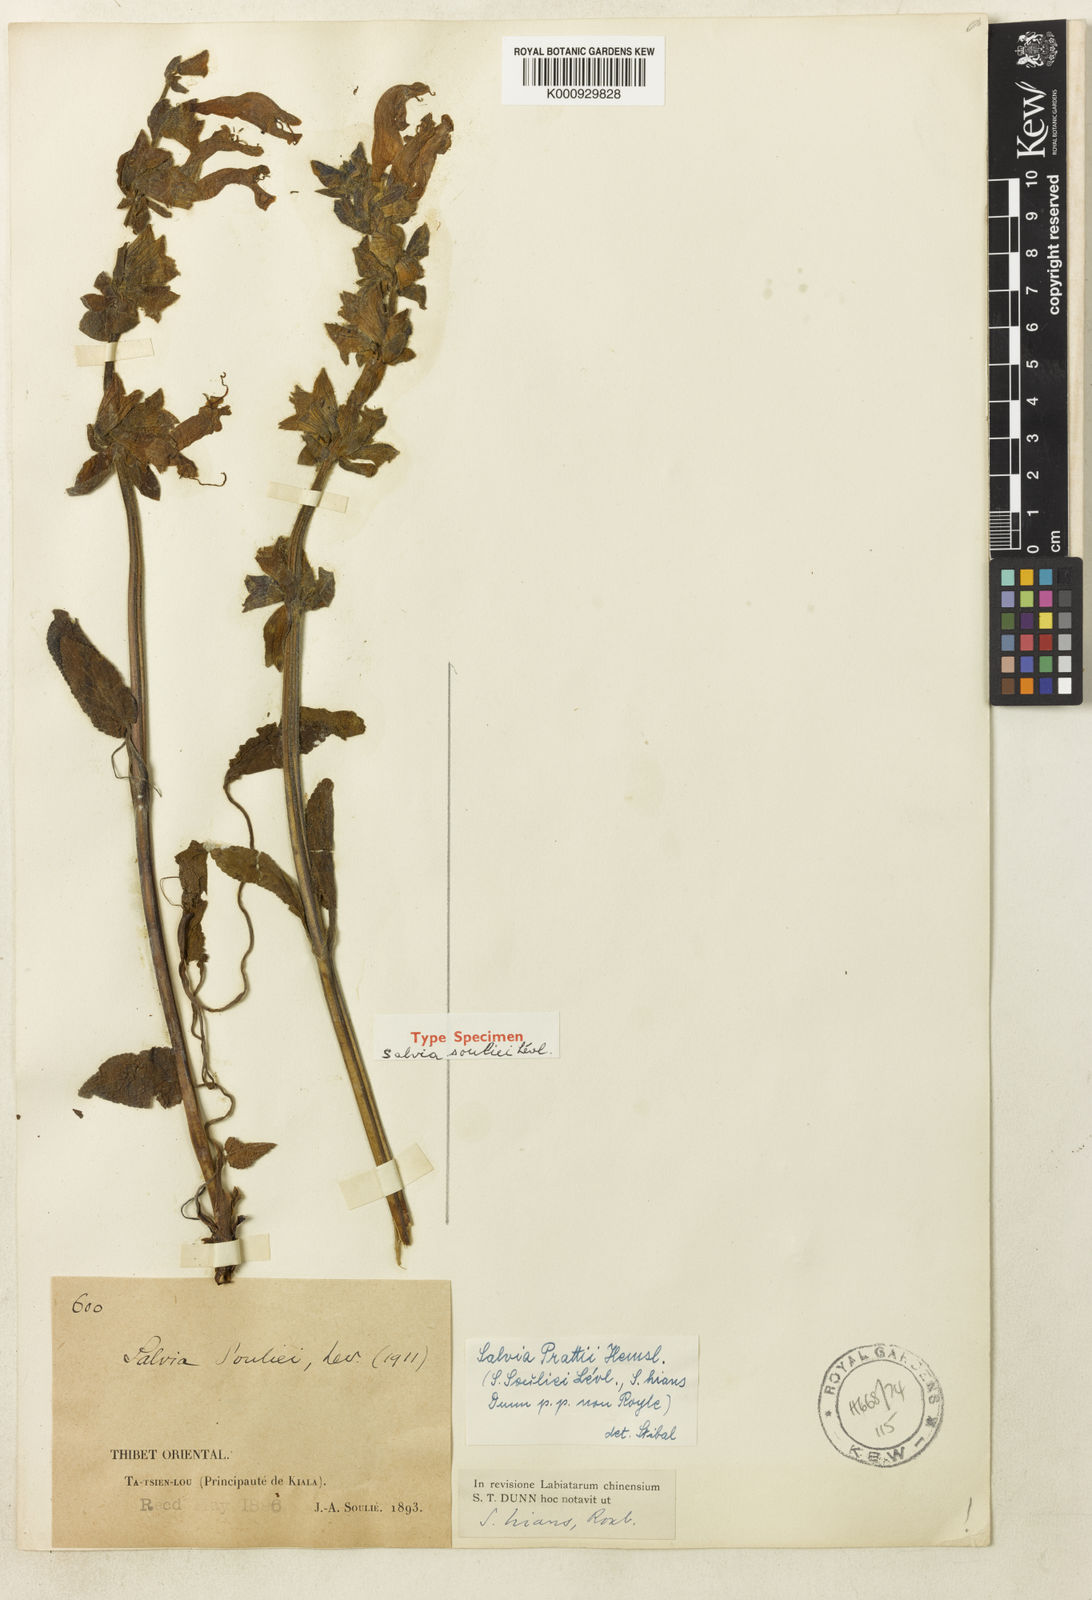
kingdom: Plantae
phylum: Tracheophyta
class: Magnoliopsida
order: Lamiales
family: Lamiaceae
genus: Salvia
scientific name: Salvia prattii
